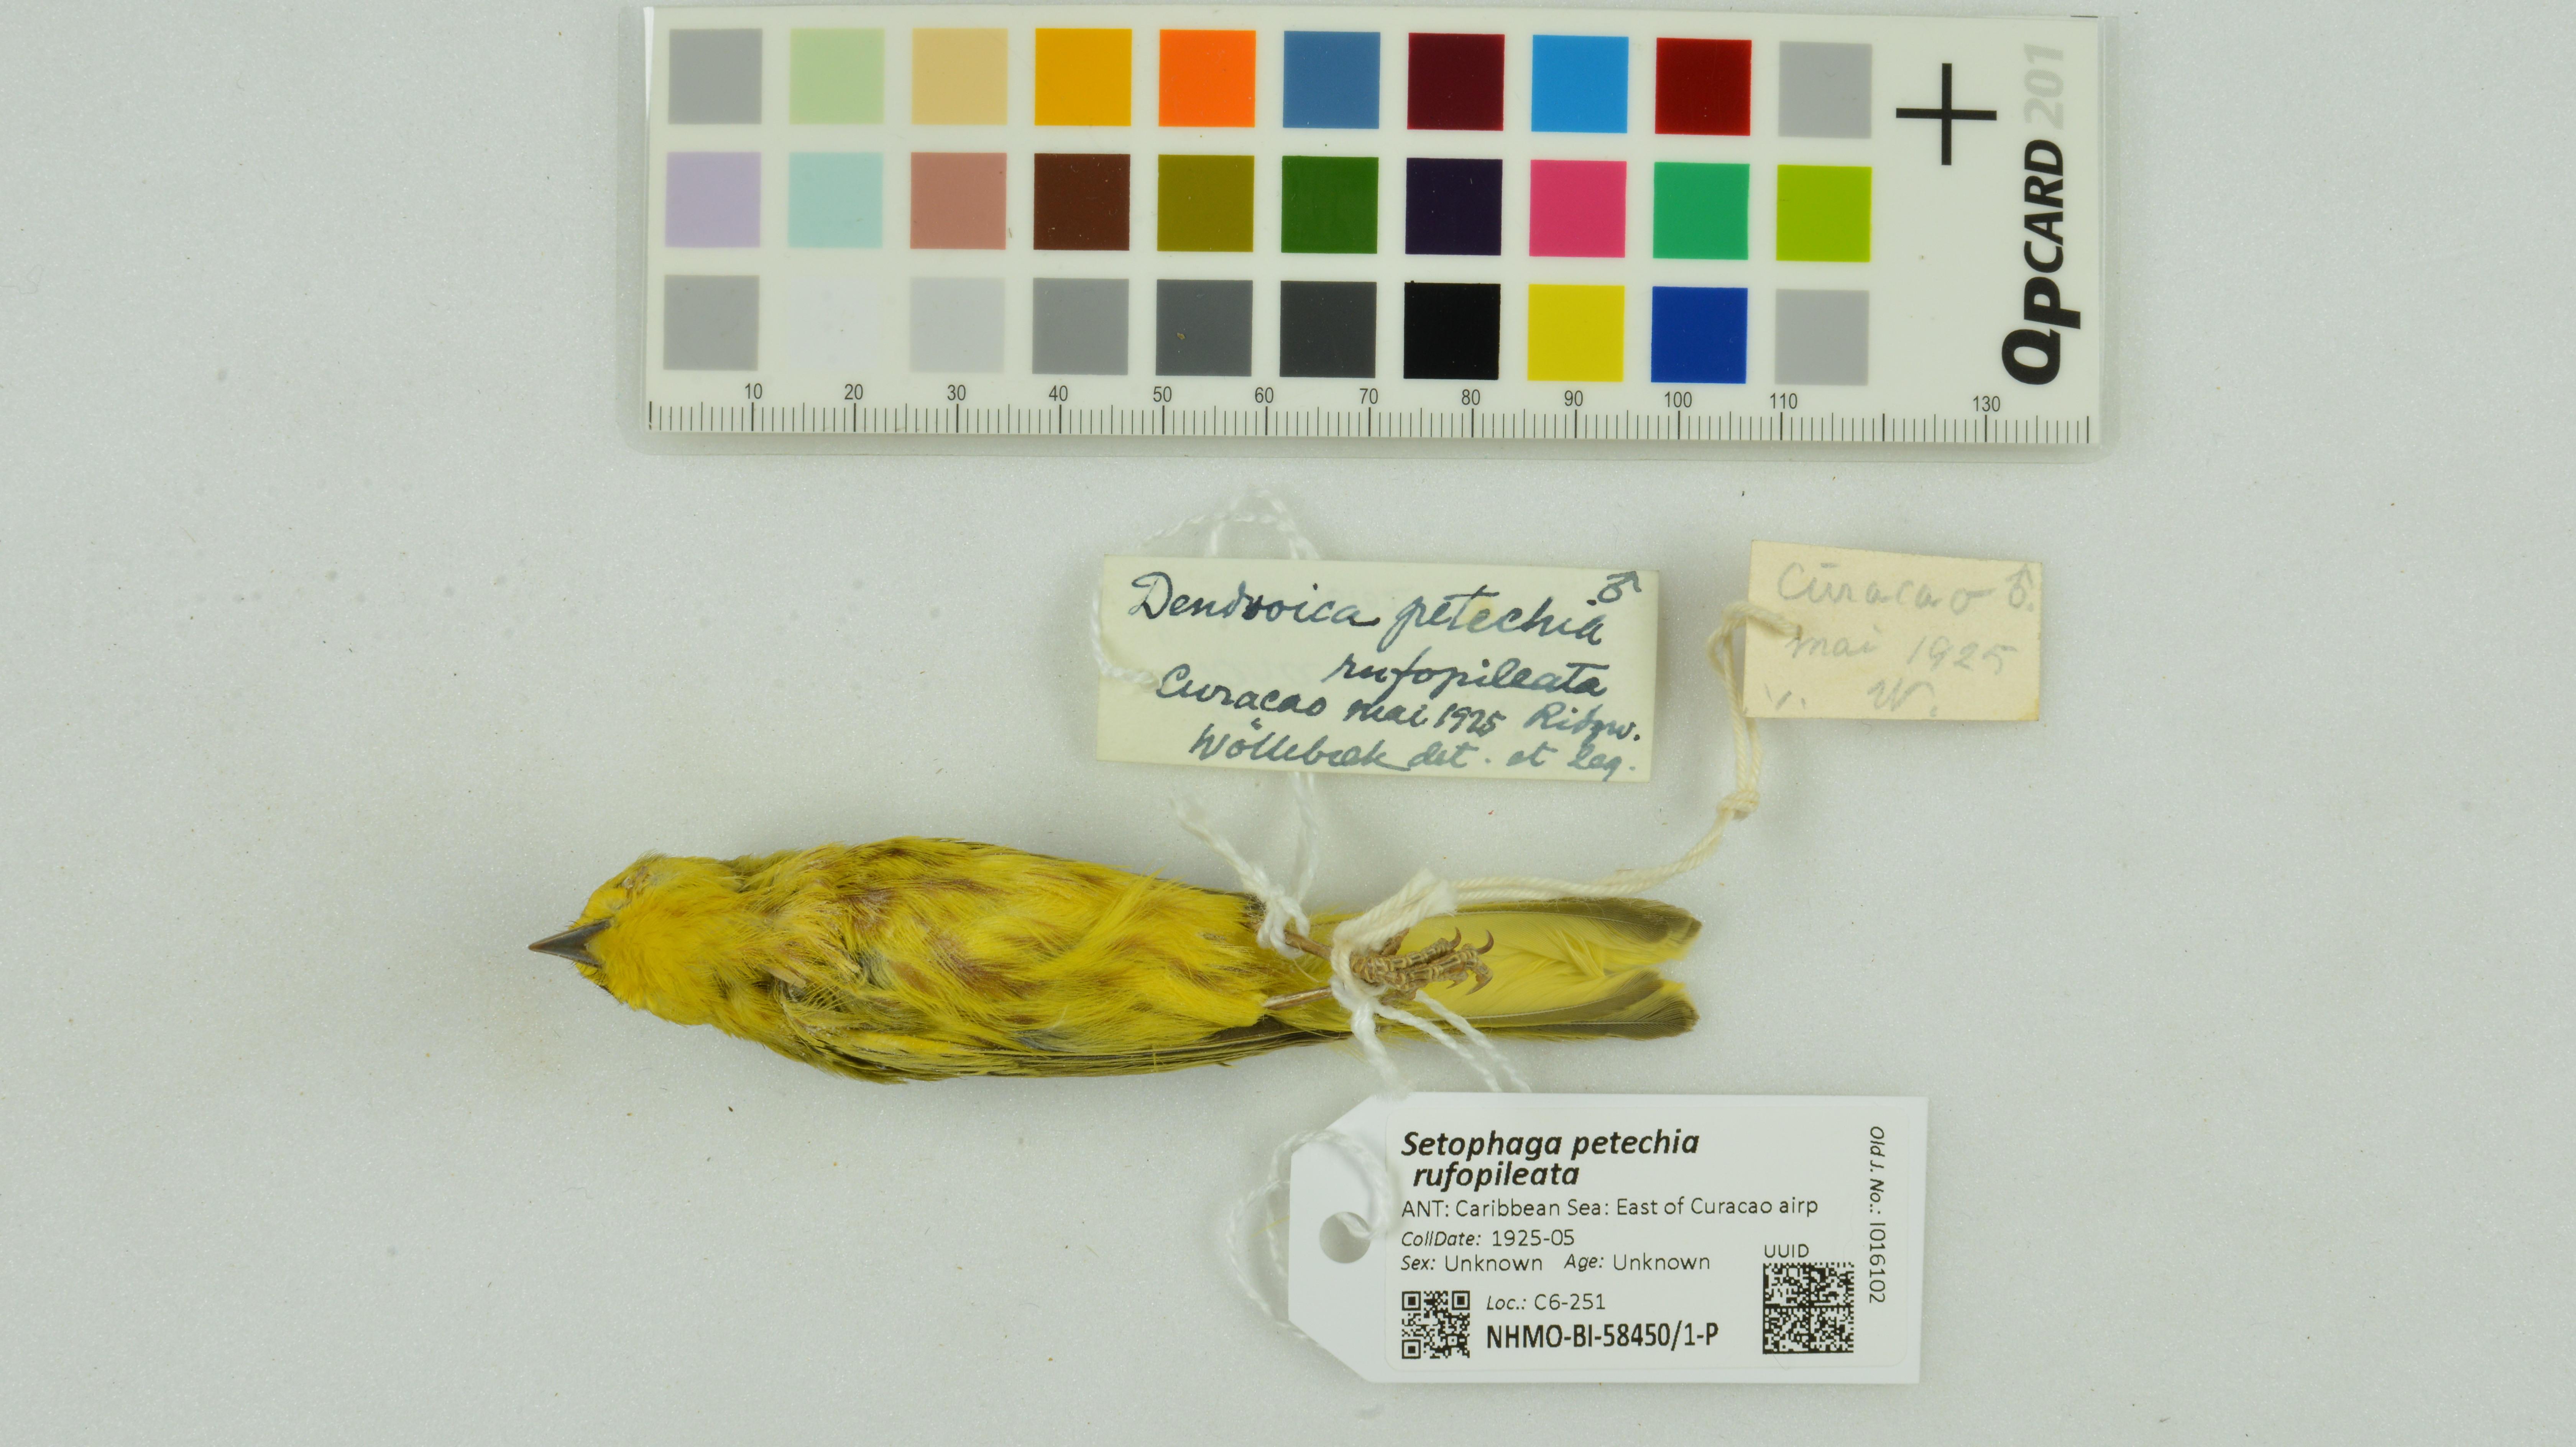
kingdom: Animalia
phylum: Chordata
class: Aves
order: Passeriformes
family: Parulidae
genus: Setophaga
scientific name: Setophaga petechia
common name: Yellow warbler
